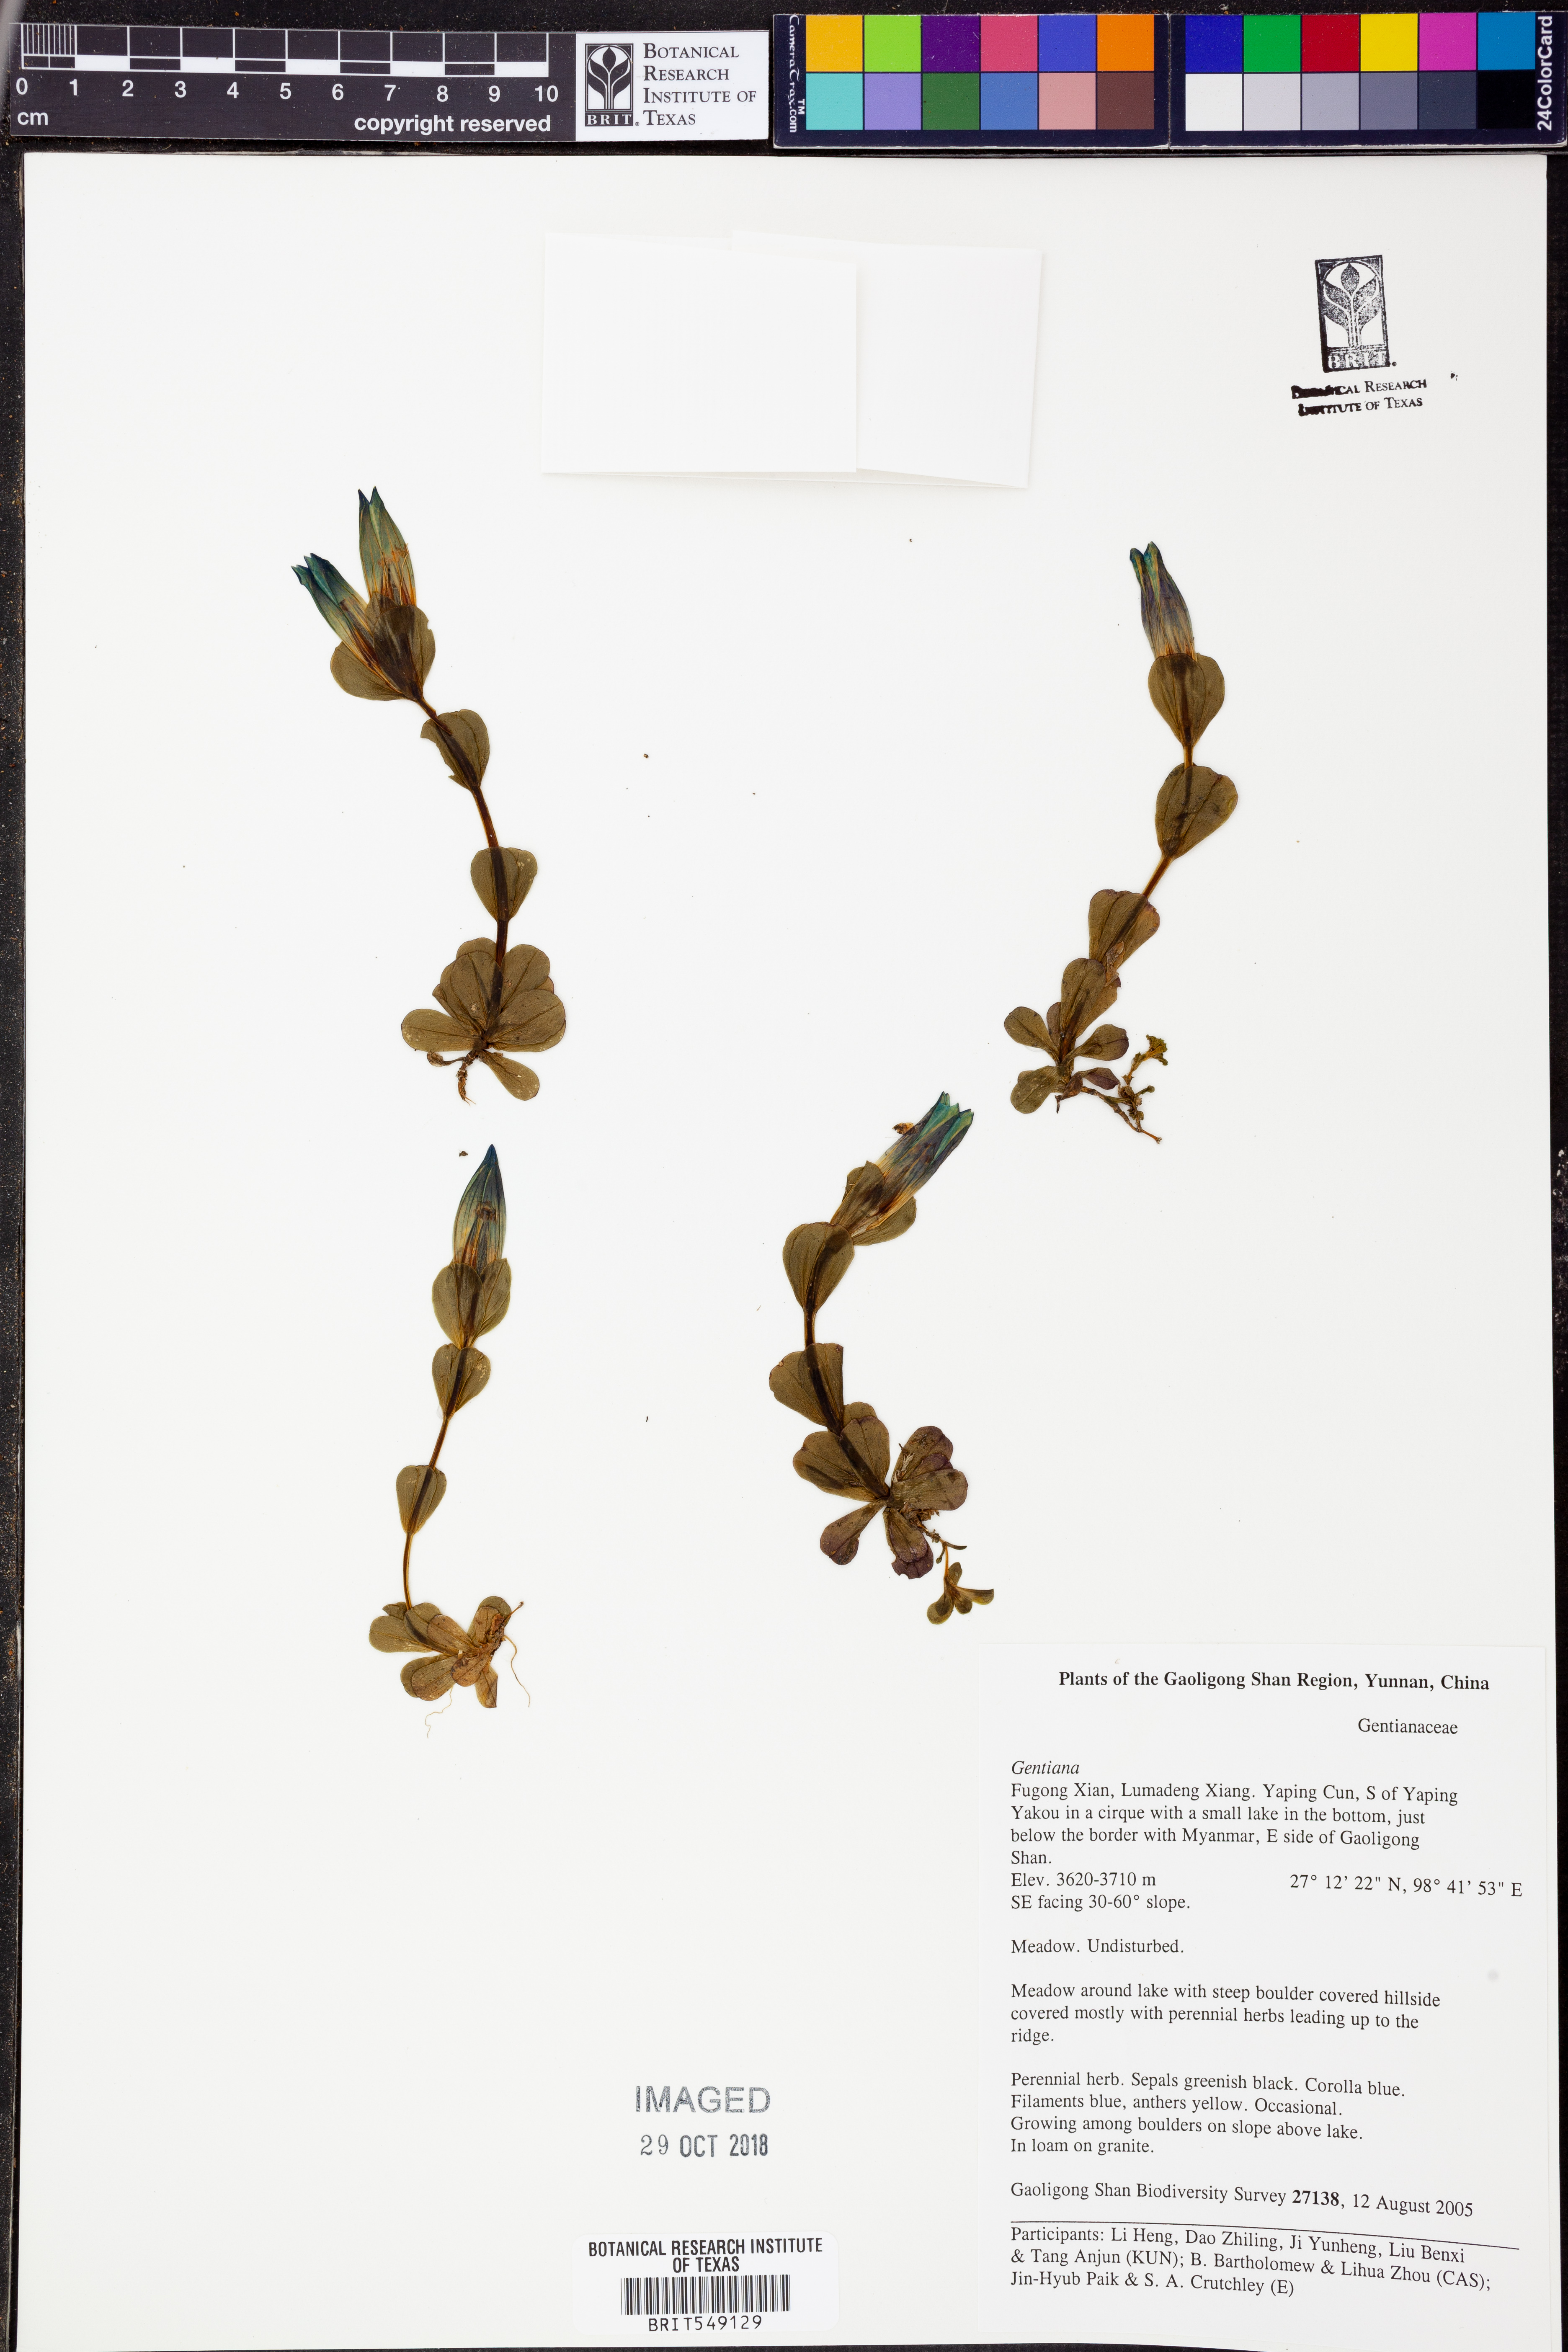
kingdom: Plantae
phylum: Tracheophyta
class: Magnoliopsida
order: Gentianales
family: Gentianaceae
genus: Gentiana
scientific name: Gentiana
